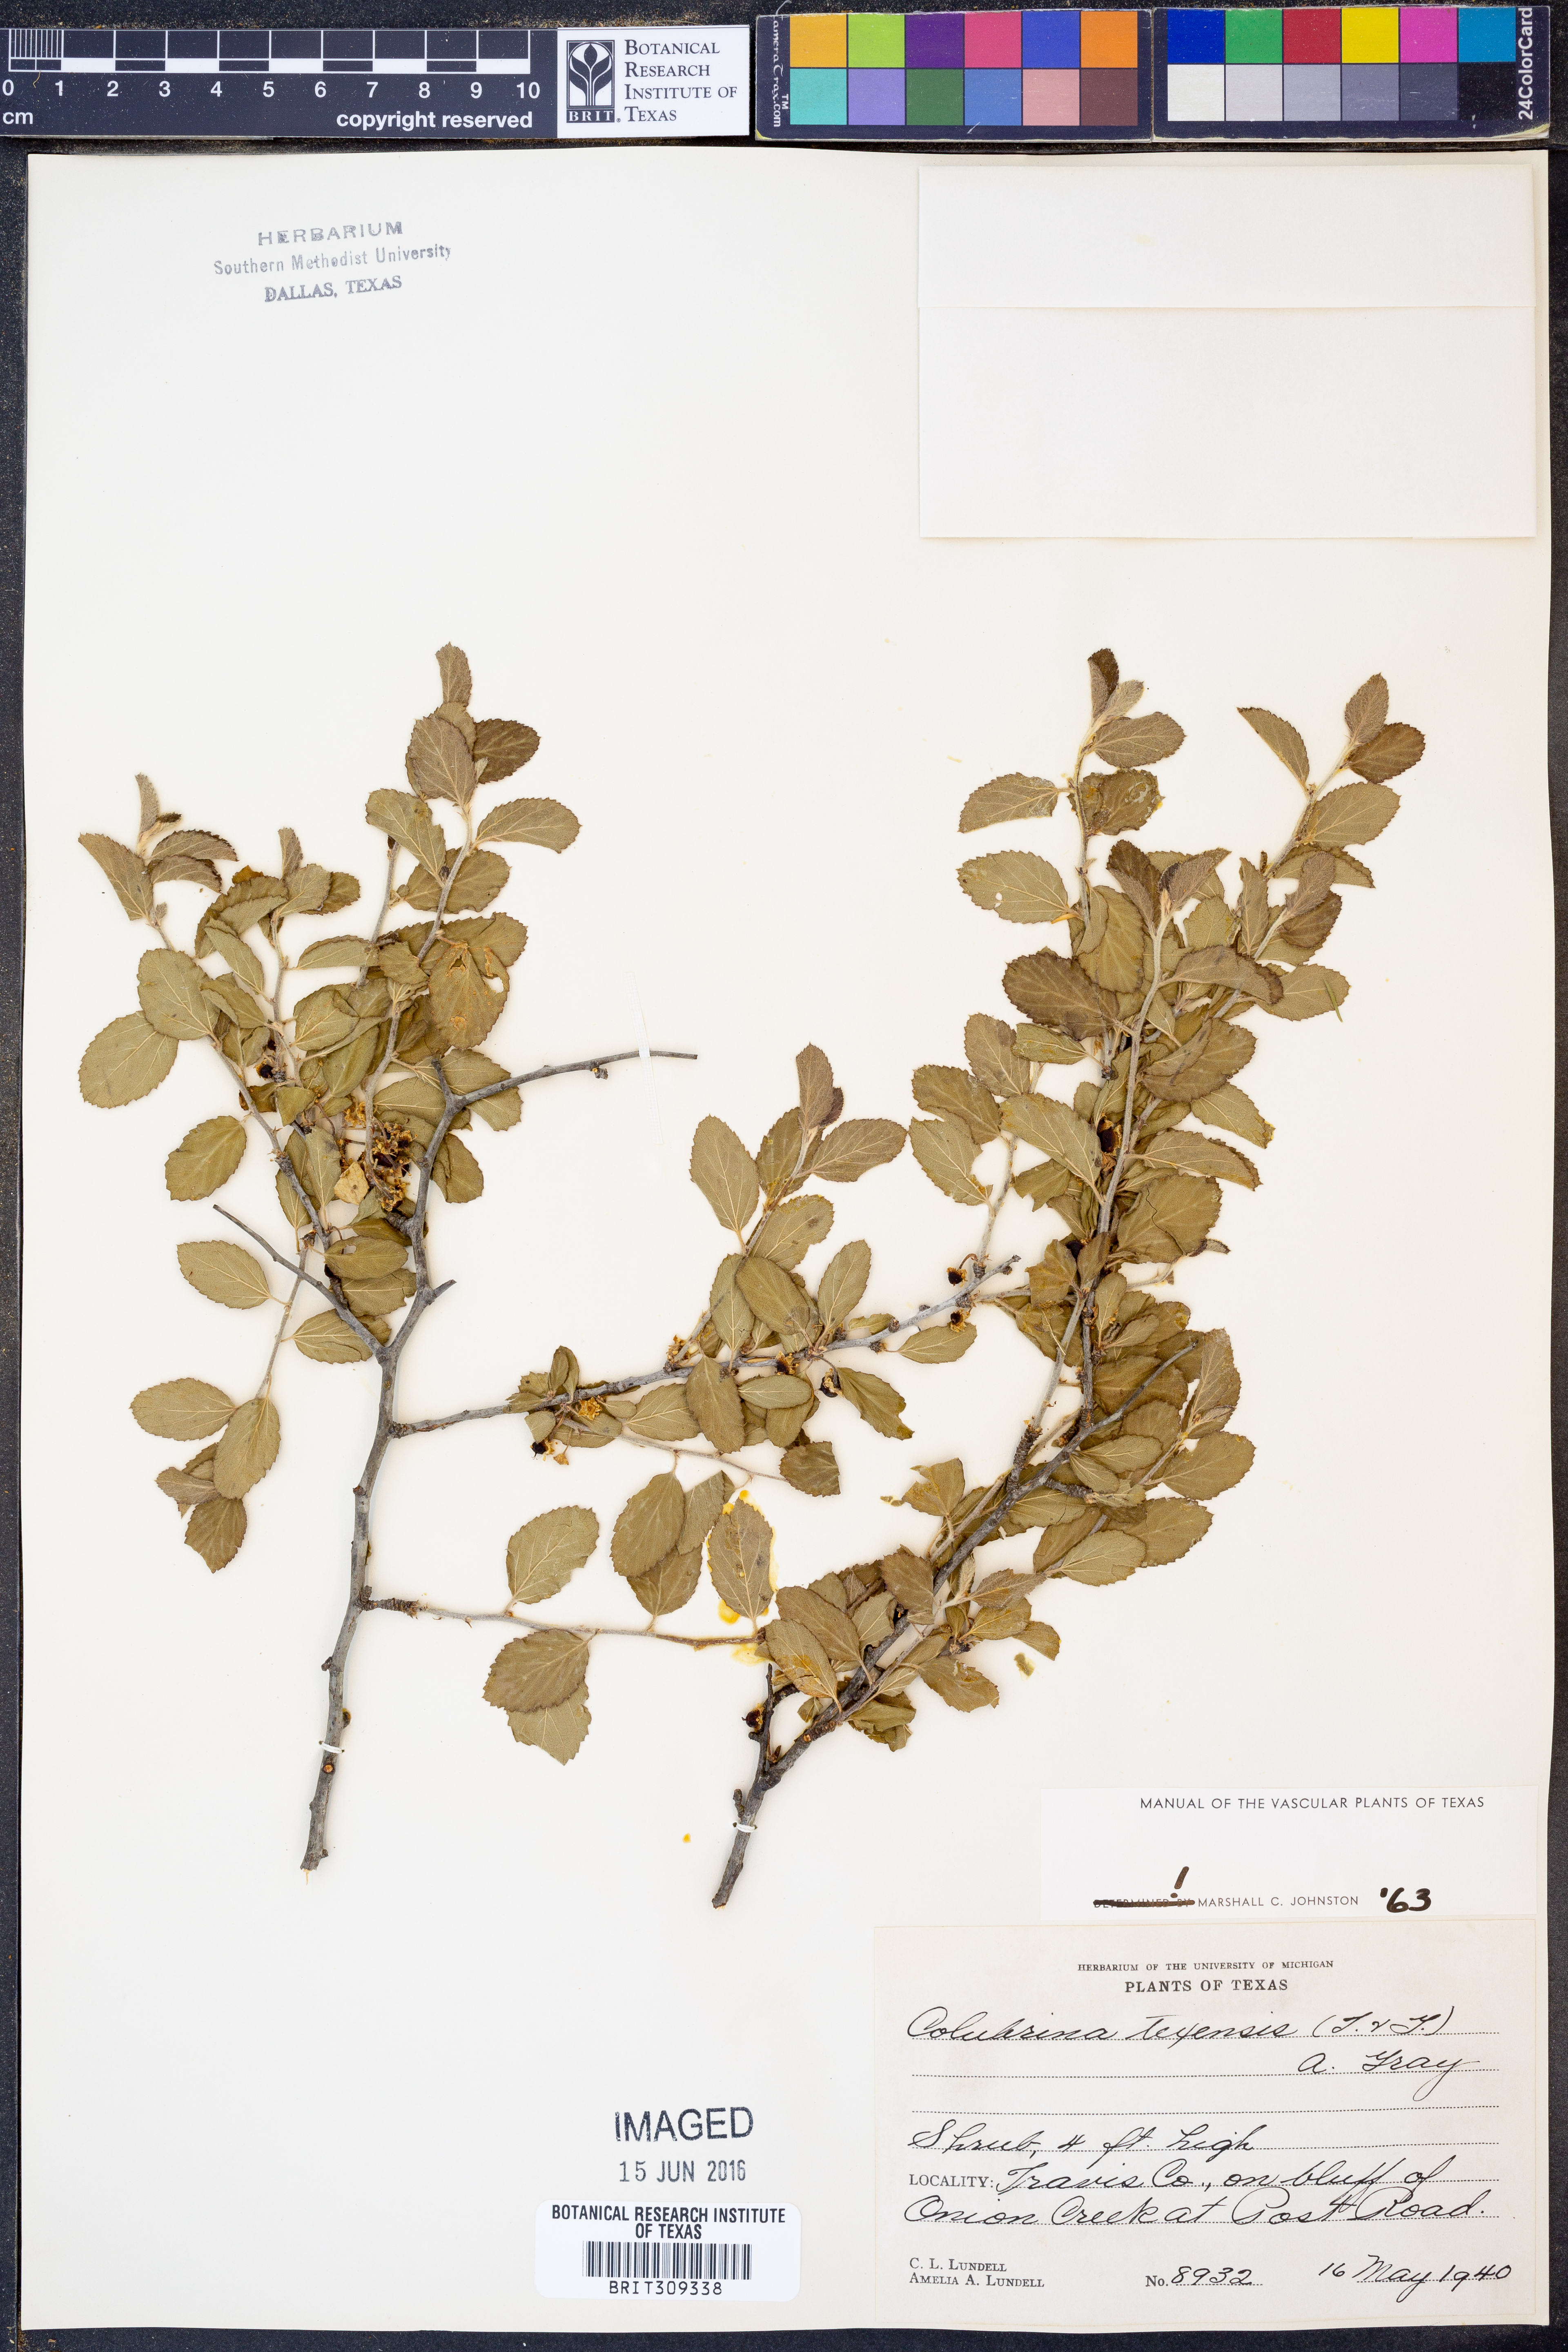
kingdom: Plantae
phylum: Tracheophyta
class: Magnoliopsida
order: Rosales
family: Rhamnaceae
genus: Colubrina
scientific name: Colubrina texensis
